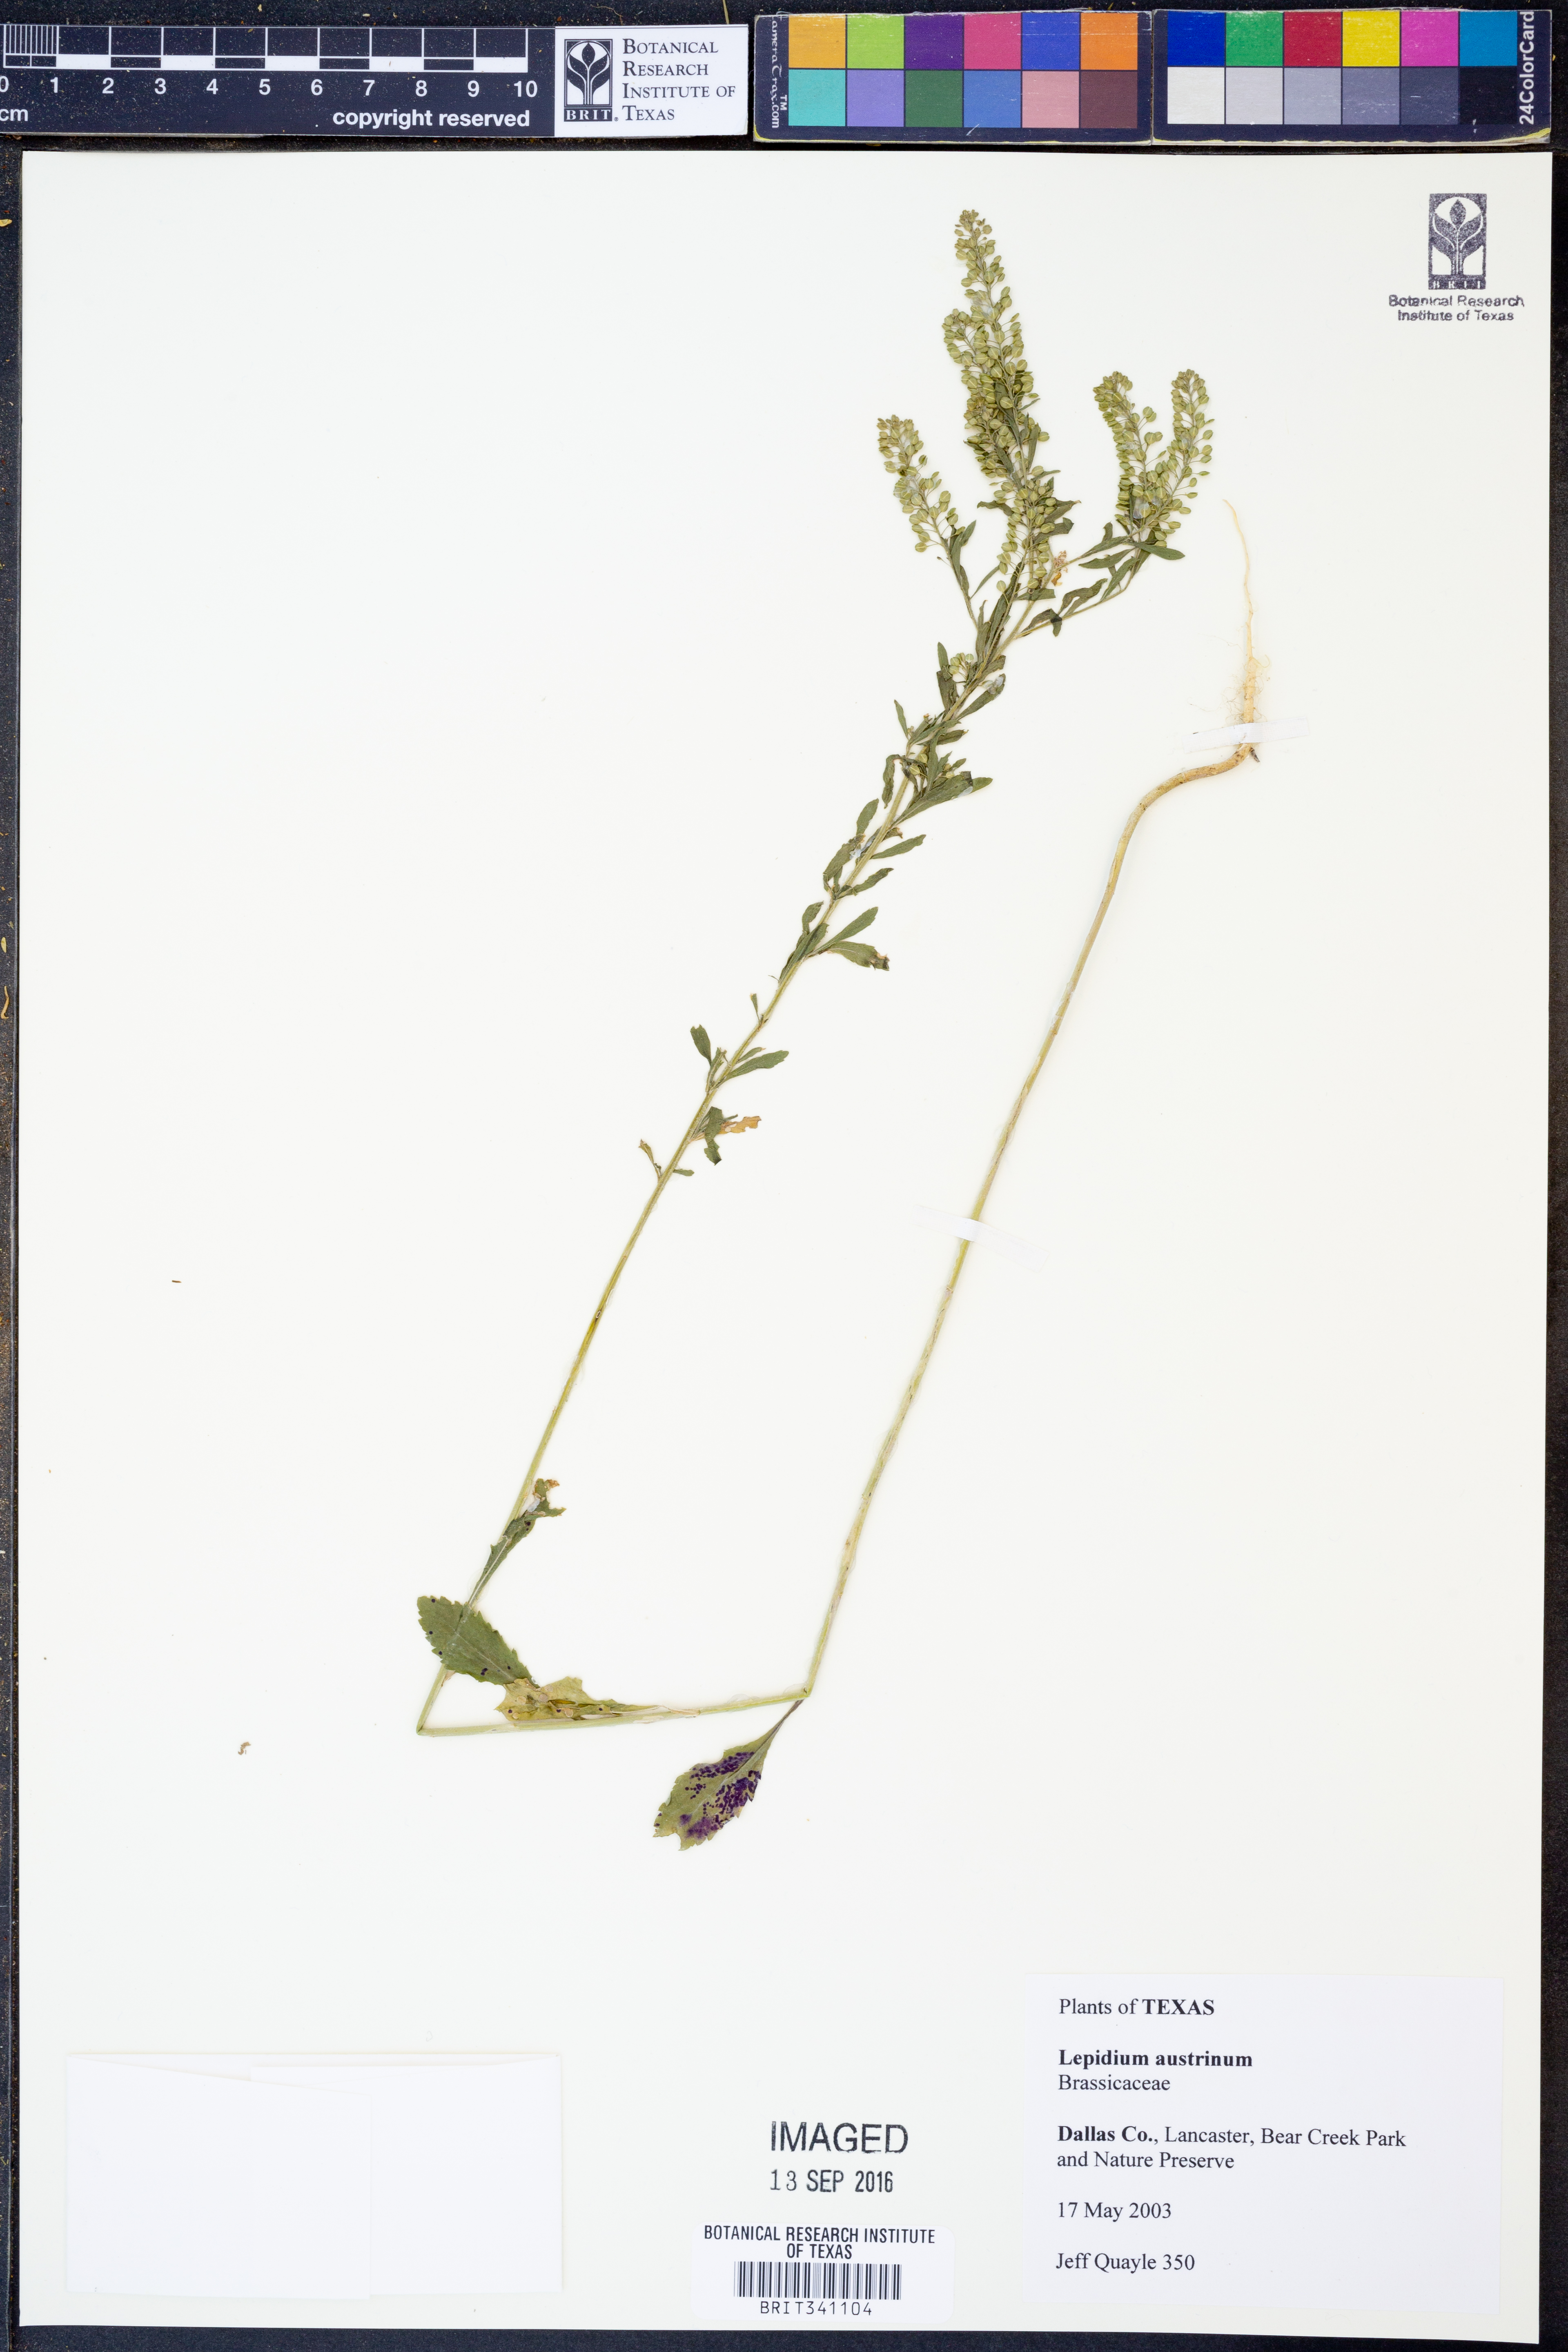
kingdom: Plantae
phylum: Tracheophyta
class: Magnoliopsida
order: Brassicales
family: Brassicaceae
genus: Lepidium
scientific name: Lepidium austrinum
